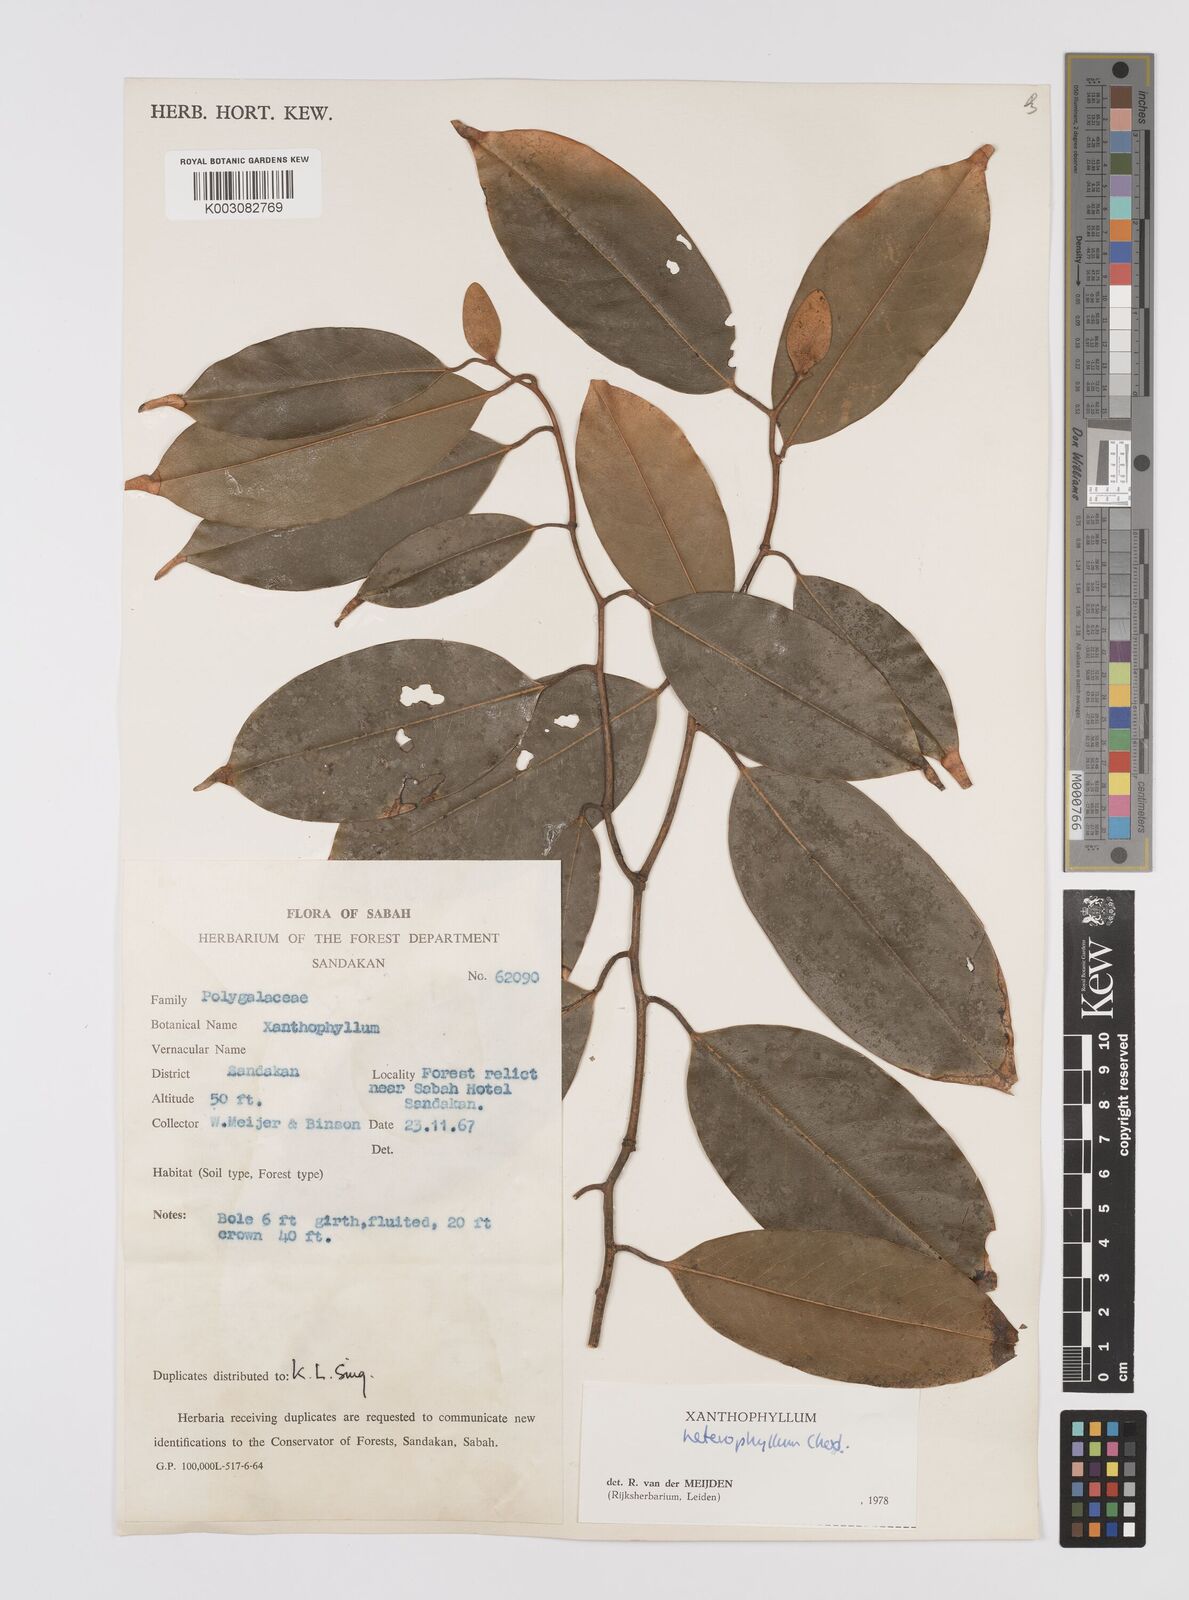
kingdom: Plantae
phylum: Tracheophyta
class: Magnoliopsida
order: Fabales
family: Polygalaceae
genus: Xanthophyllum
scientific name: Xanthophyllum heterophyllum
